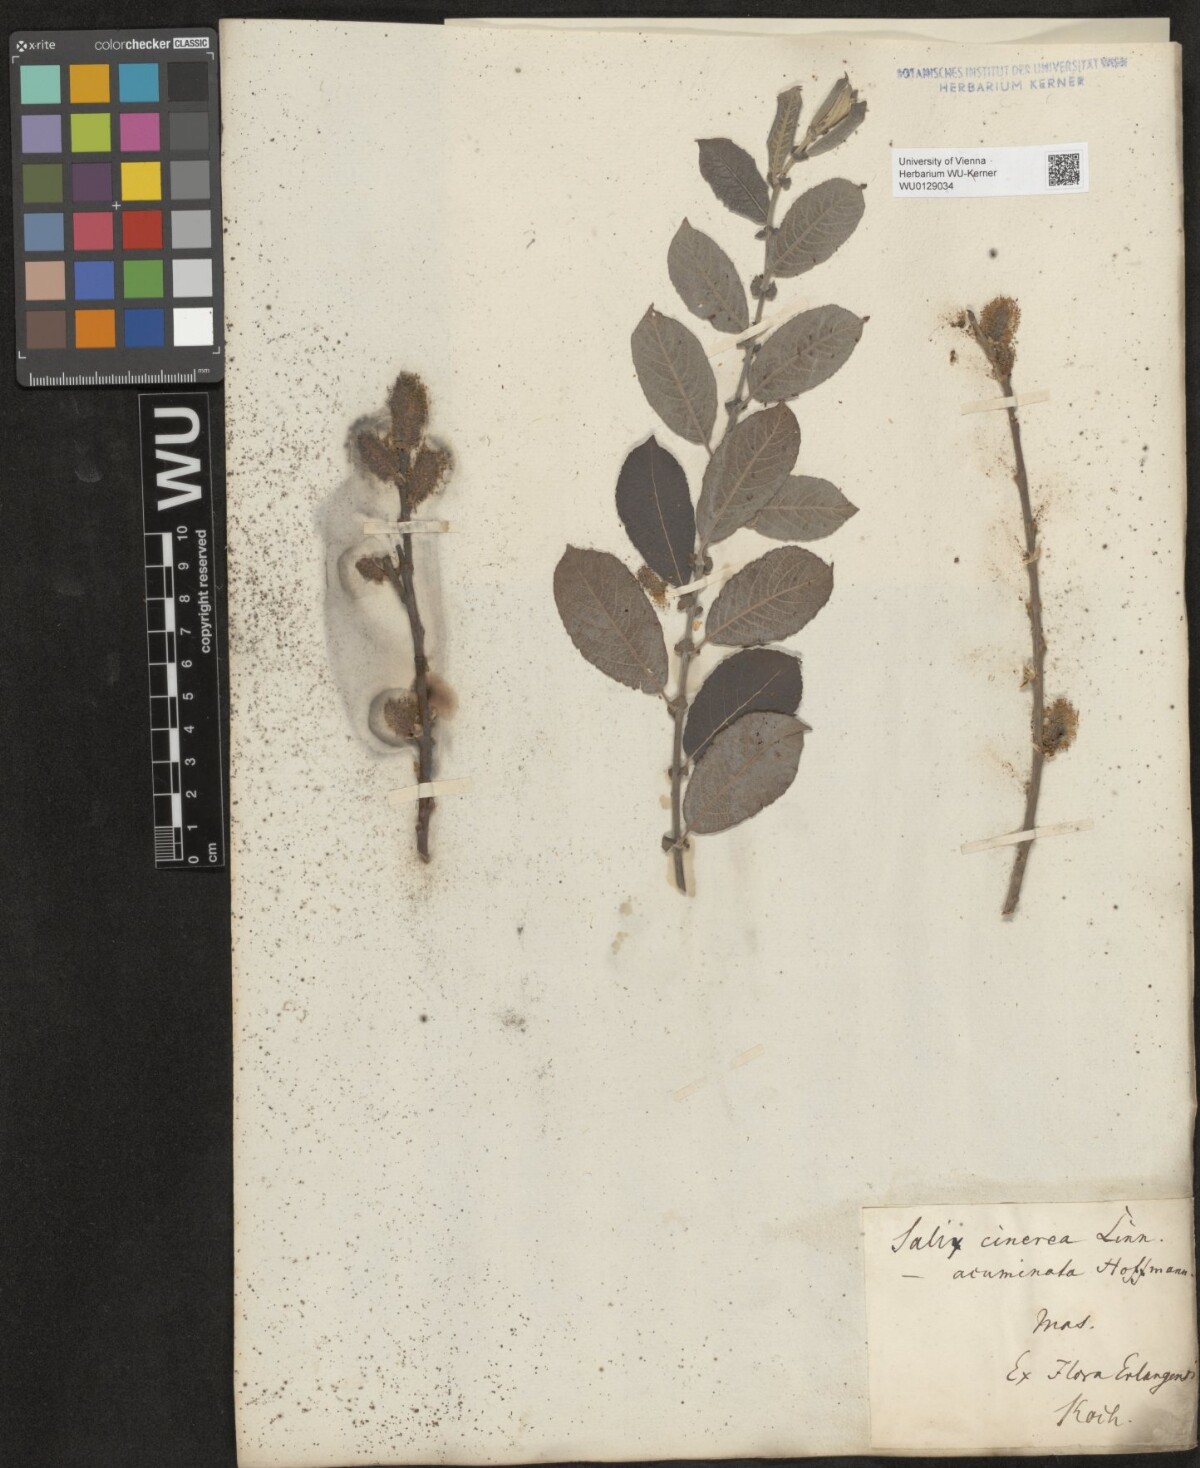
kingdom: Plantae
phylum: Tracheophyta
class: Magnoliopsida
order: Malpighiales
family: Salicaceae
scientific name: Salicaceae
